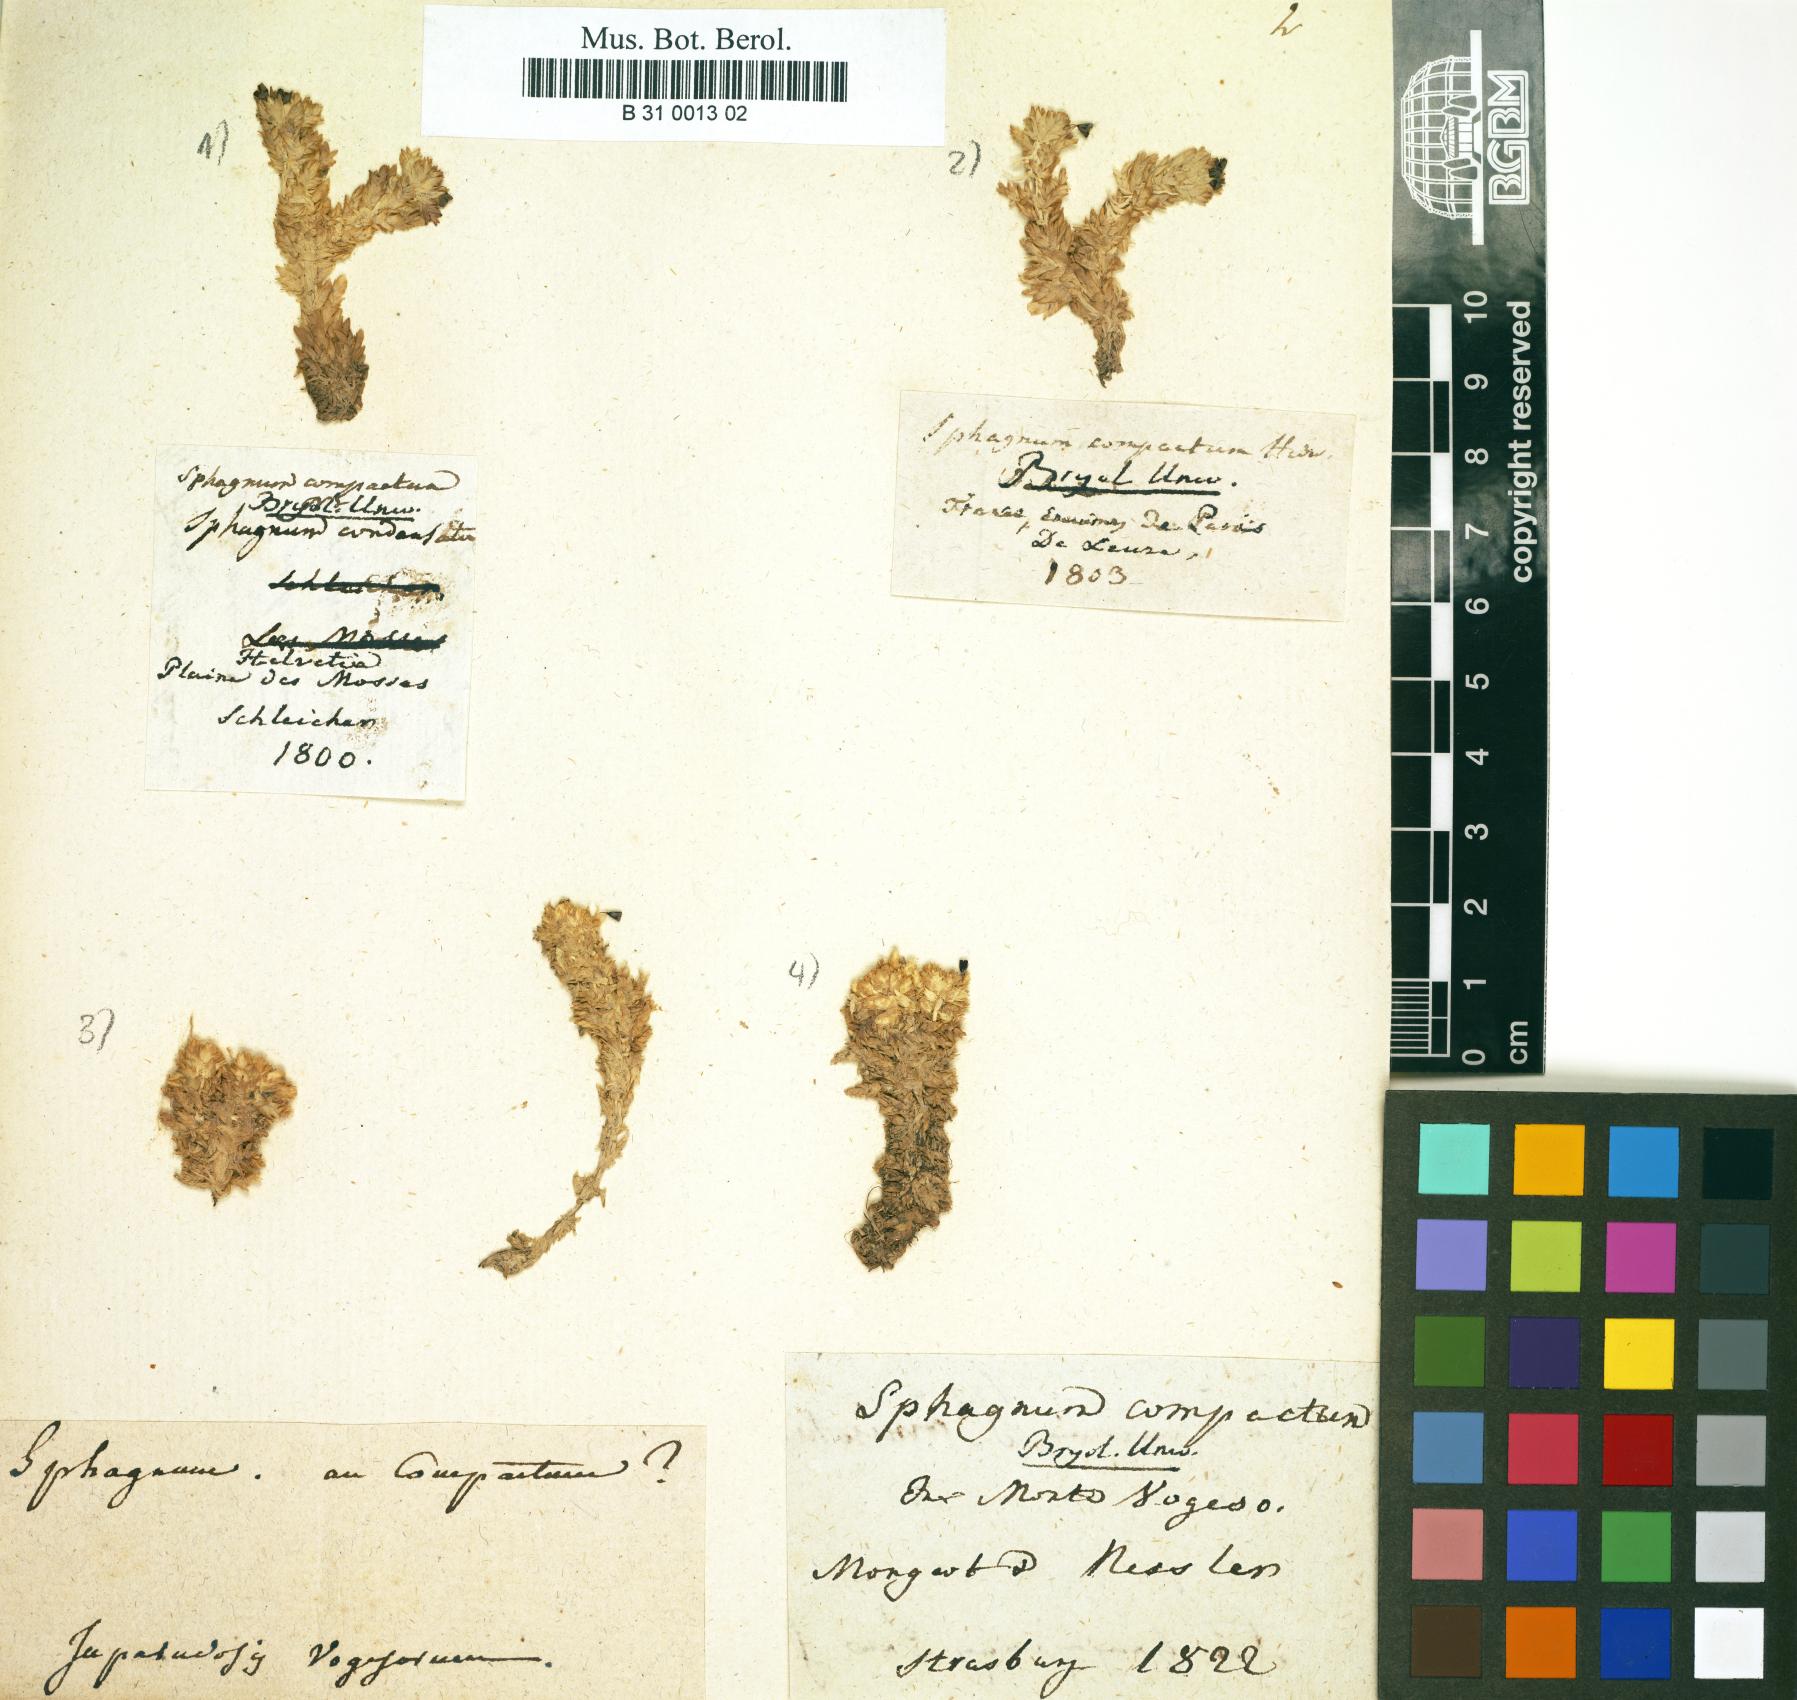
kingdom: Plantae
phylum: Bryophyta
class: Sphagnopsida
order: Sphagnales
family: Sphagnaceae
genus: Sphagnum
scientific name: Sphagnum compactum
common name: Compact peat moss
